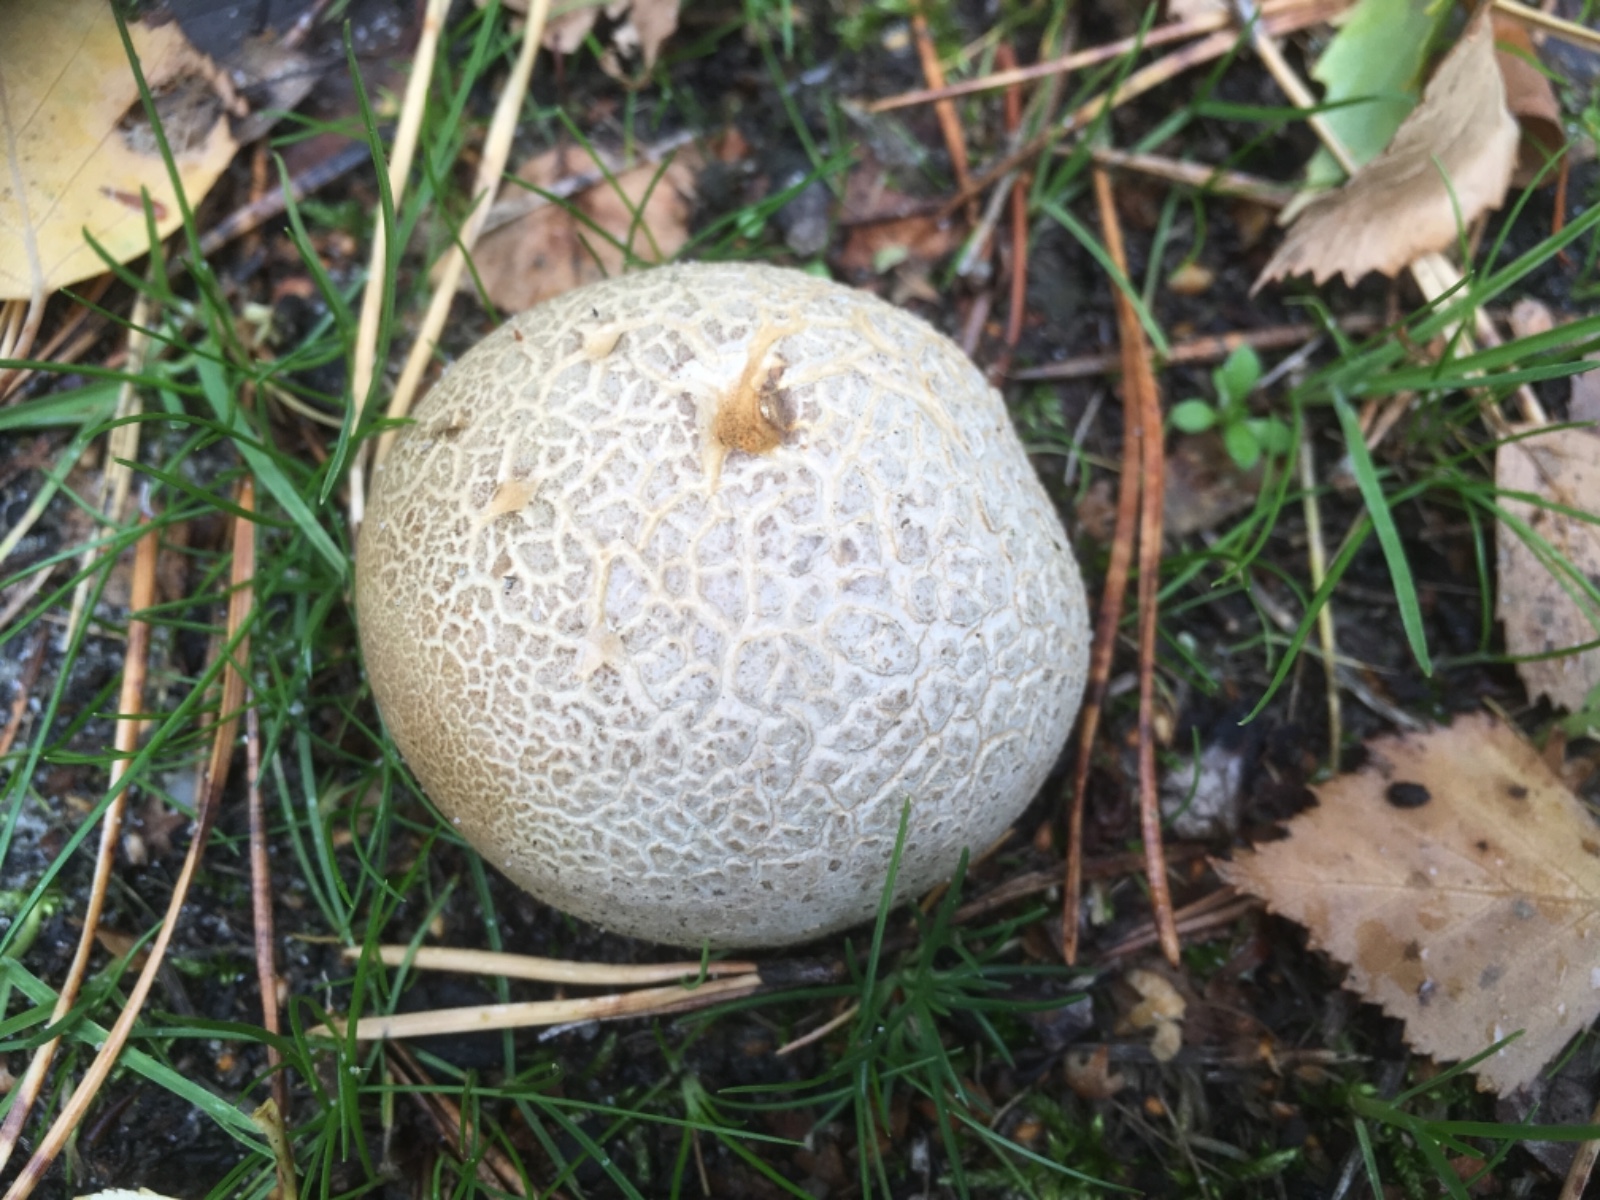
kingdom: Fungi
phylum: Basidiomycota
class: Agaricomycetes
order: Boletales
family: Sclerodermataceae
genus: Scleroderma
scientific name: Scleroderma citrinum
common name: almindelig bruskbold
